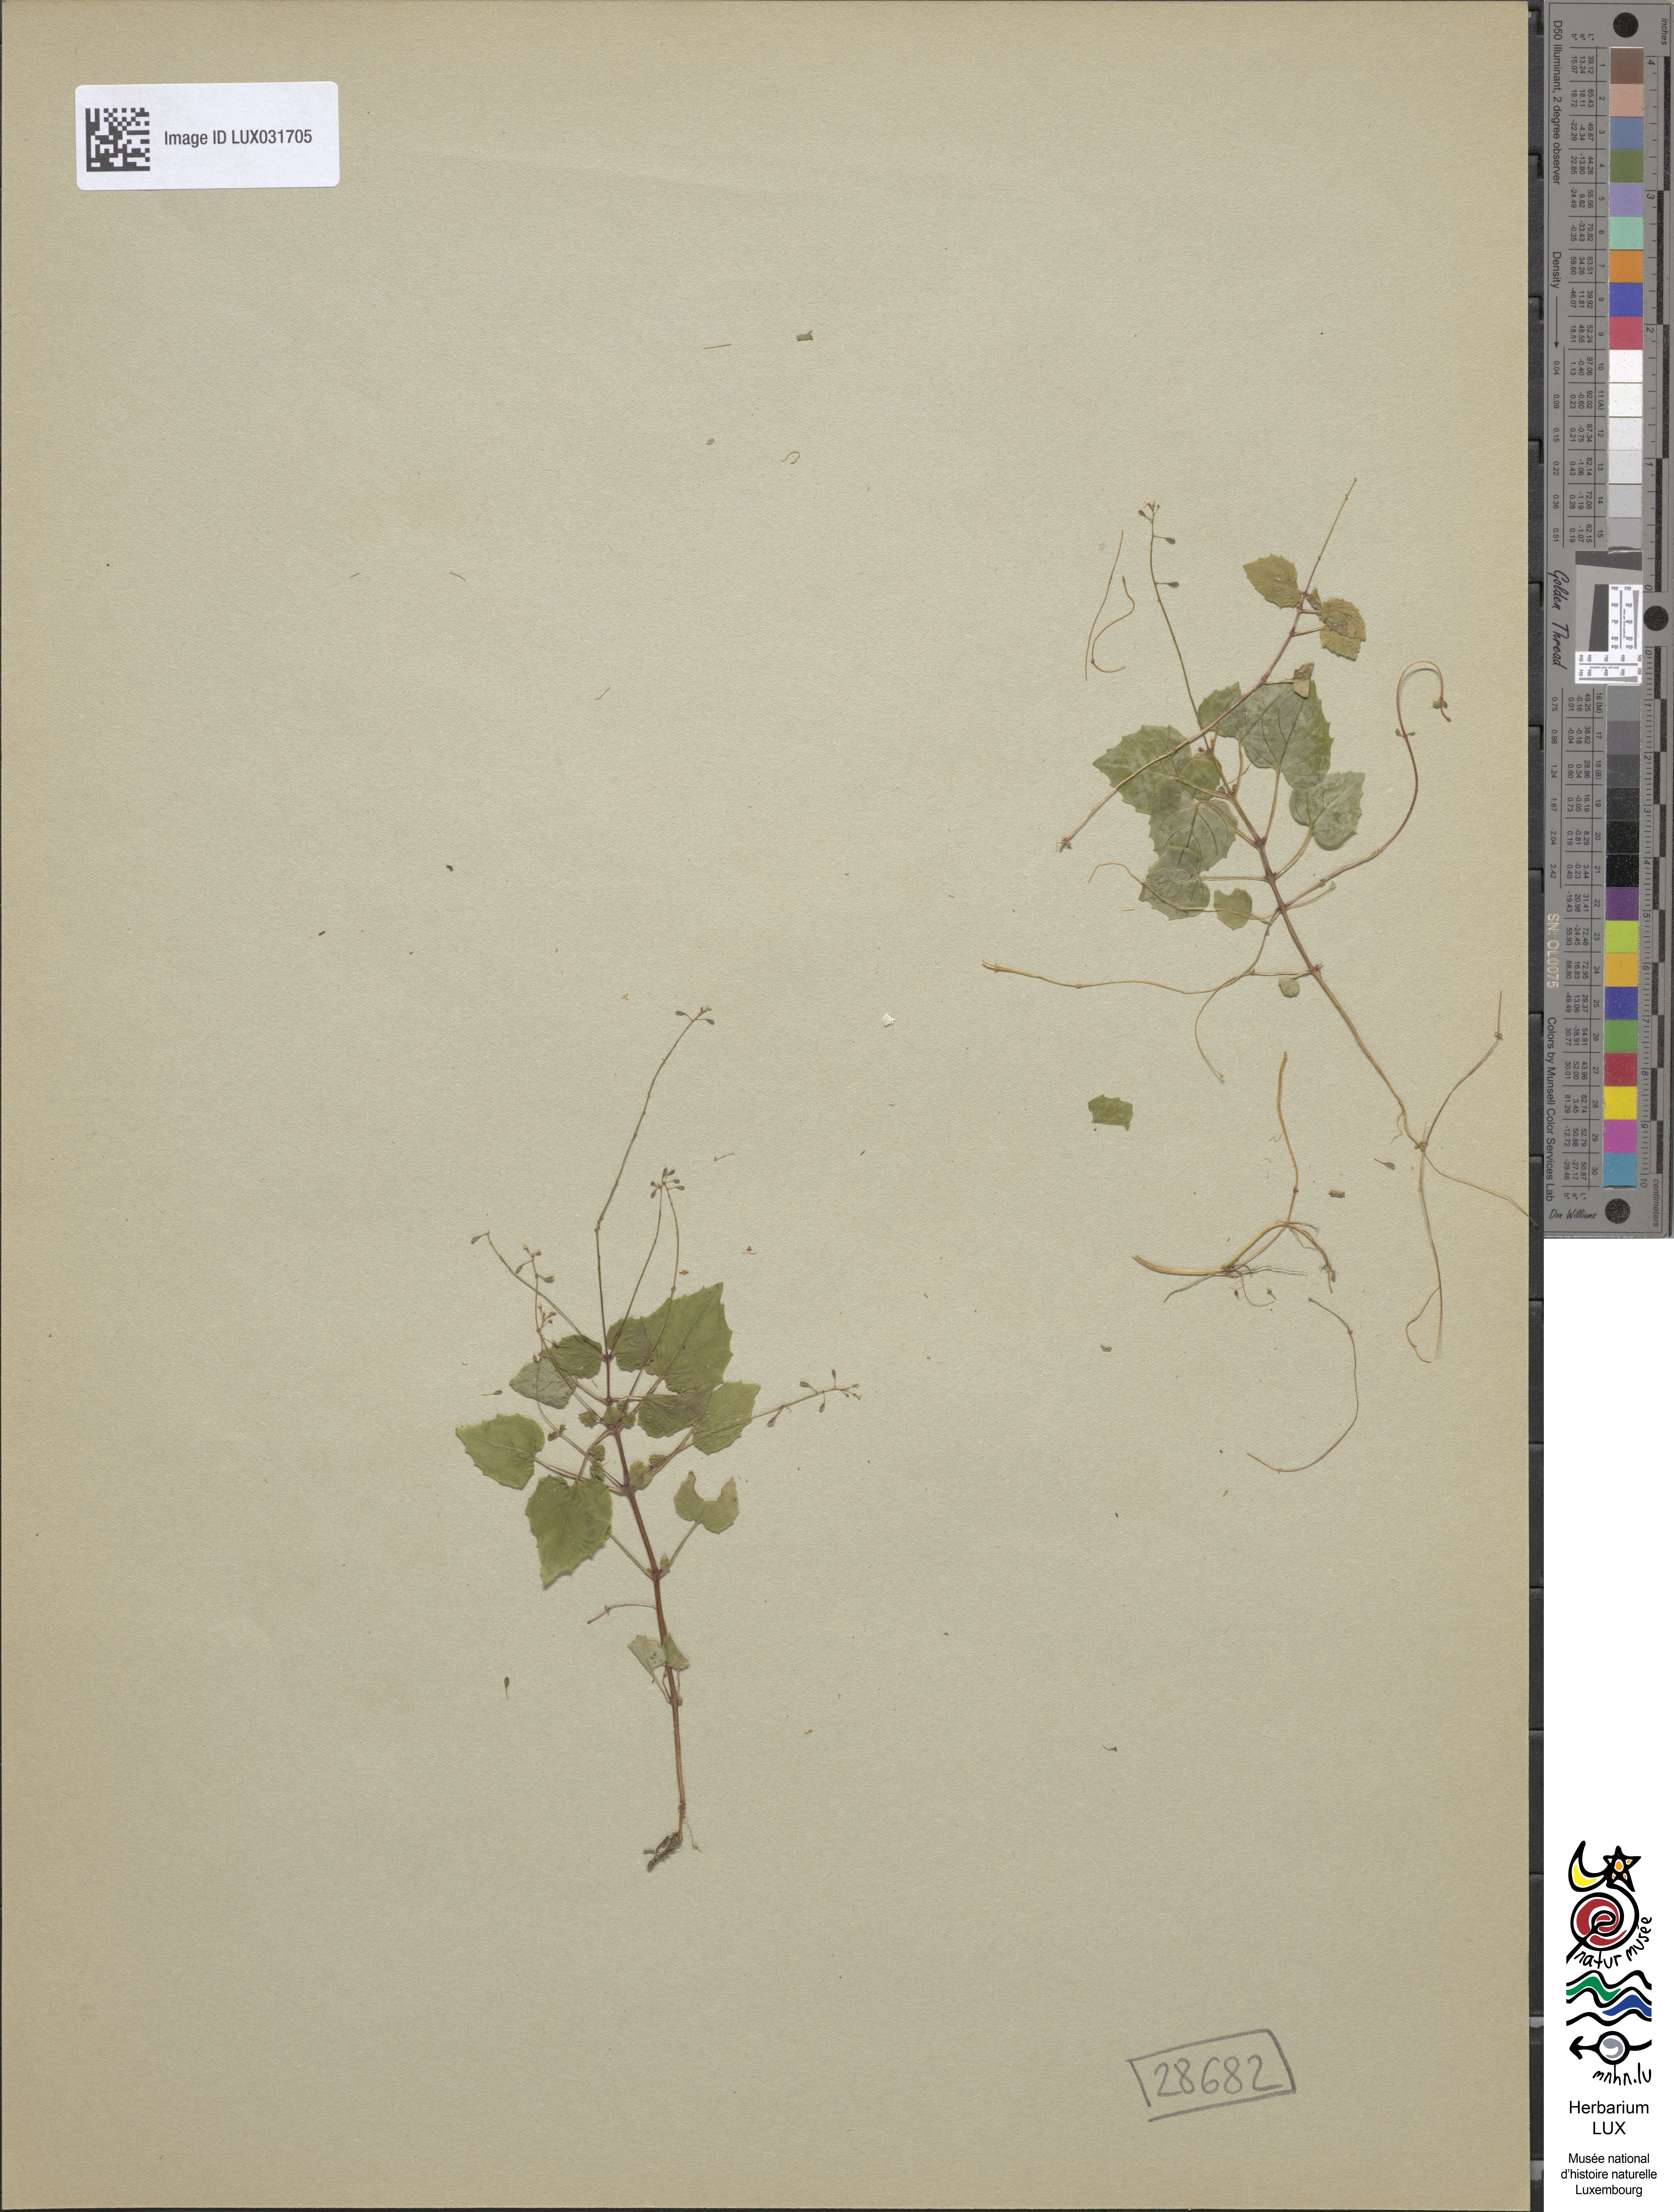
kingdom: Plantae
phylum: Tracheophyta
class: Magnoliopsida
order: Myrtales
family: Onagraceae
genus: Circaea
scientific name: Circaea alpina
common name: Alpine enchanter's-nightshade
